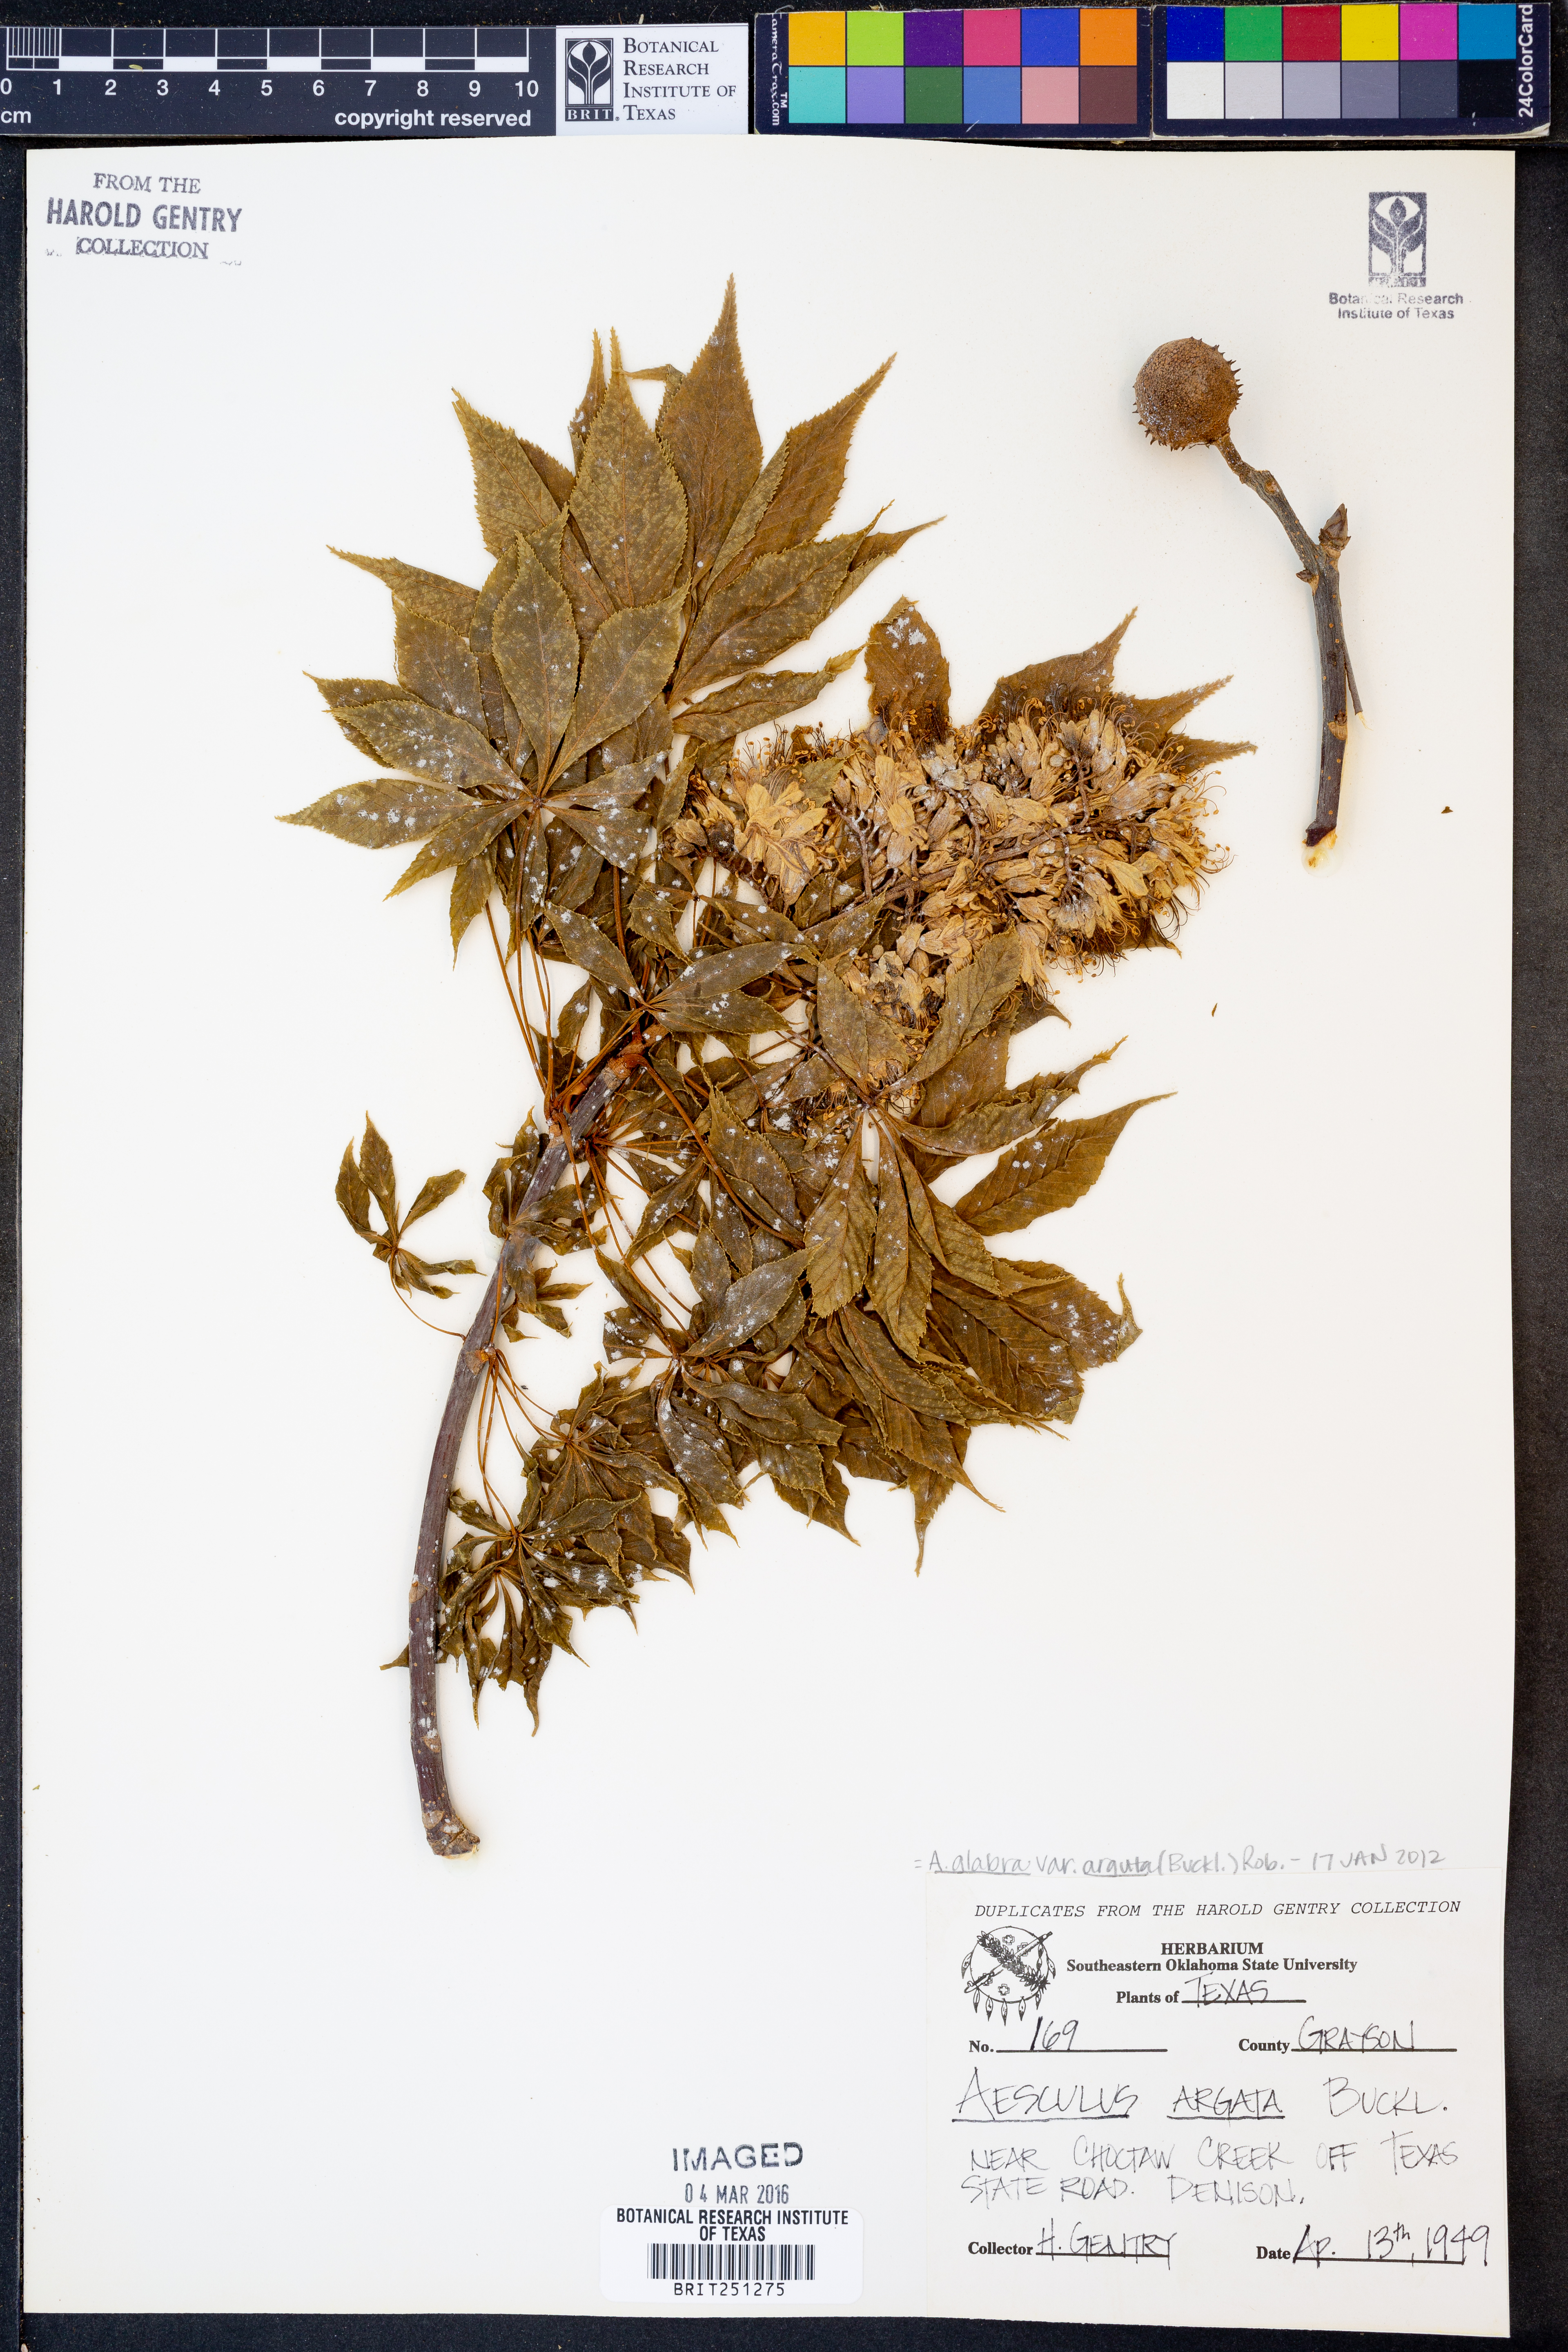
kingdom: Plantae
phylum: Tracheophyta
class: Magnoliopsida
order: Sapindales
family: Sapindaceae
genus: Aesculus
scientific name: Aesculus glabra
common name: Ohio buckeye
